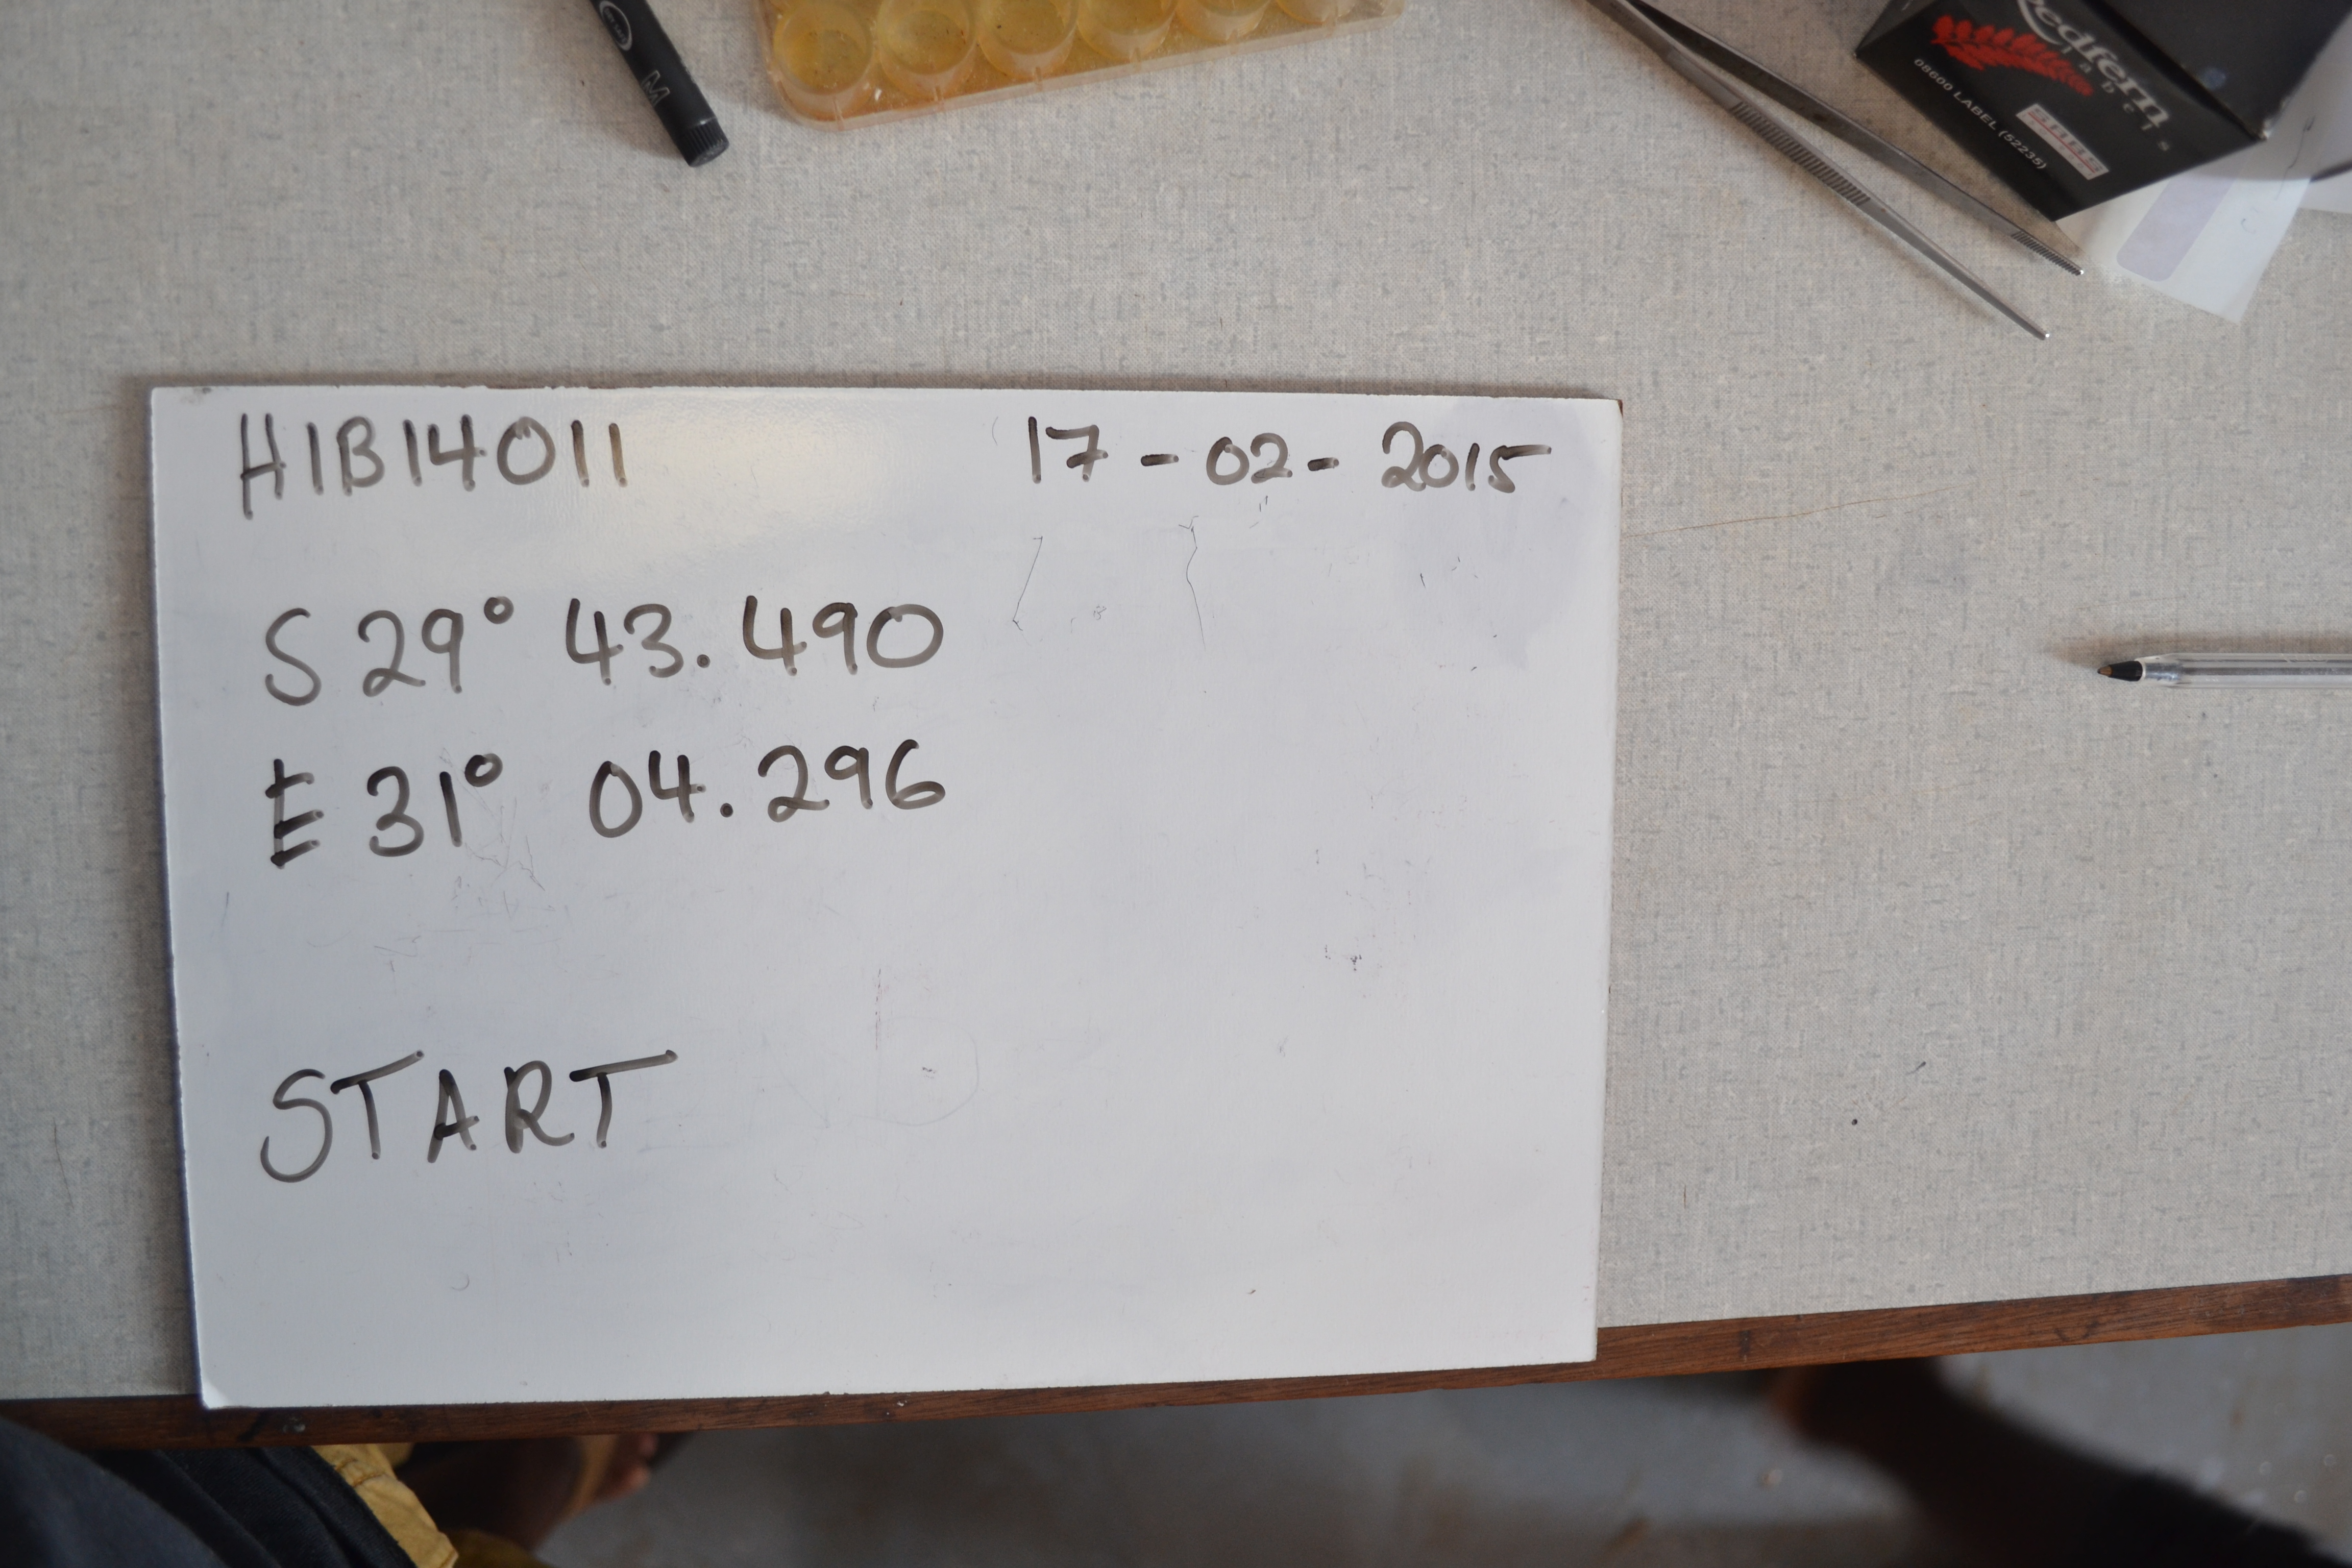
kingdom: Animalia
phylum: Chordata
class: Elasmobranchii
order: Carcharhiniformes
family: Sphyrnidae
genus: Sphyrna
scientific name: Sphyrna zygaena
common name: Smooth hammerhead
